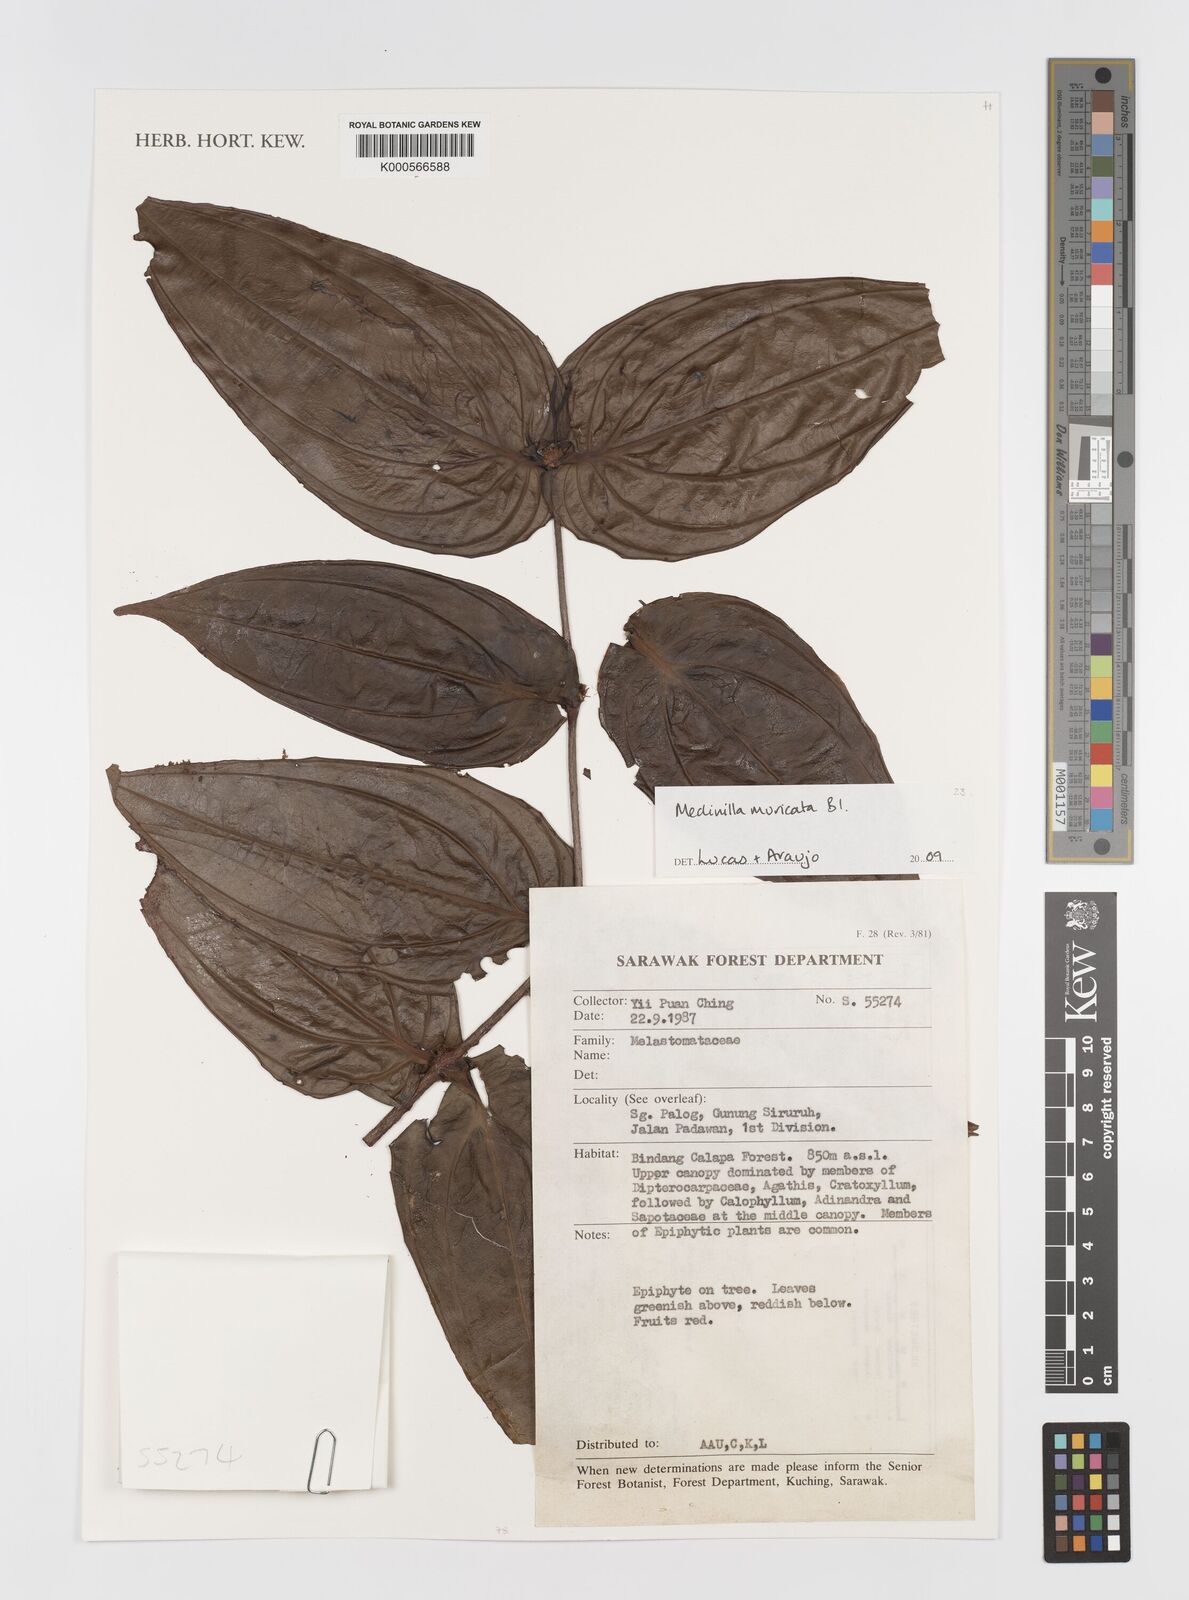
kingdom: Plantae
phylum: Tracheophyta
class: Magnoliopsida
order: Myrtales
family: Melastomataceae
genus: Medinilla
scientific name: Medinilla muricata
